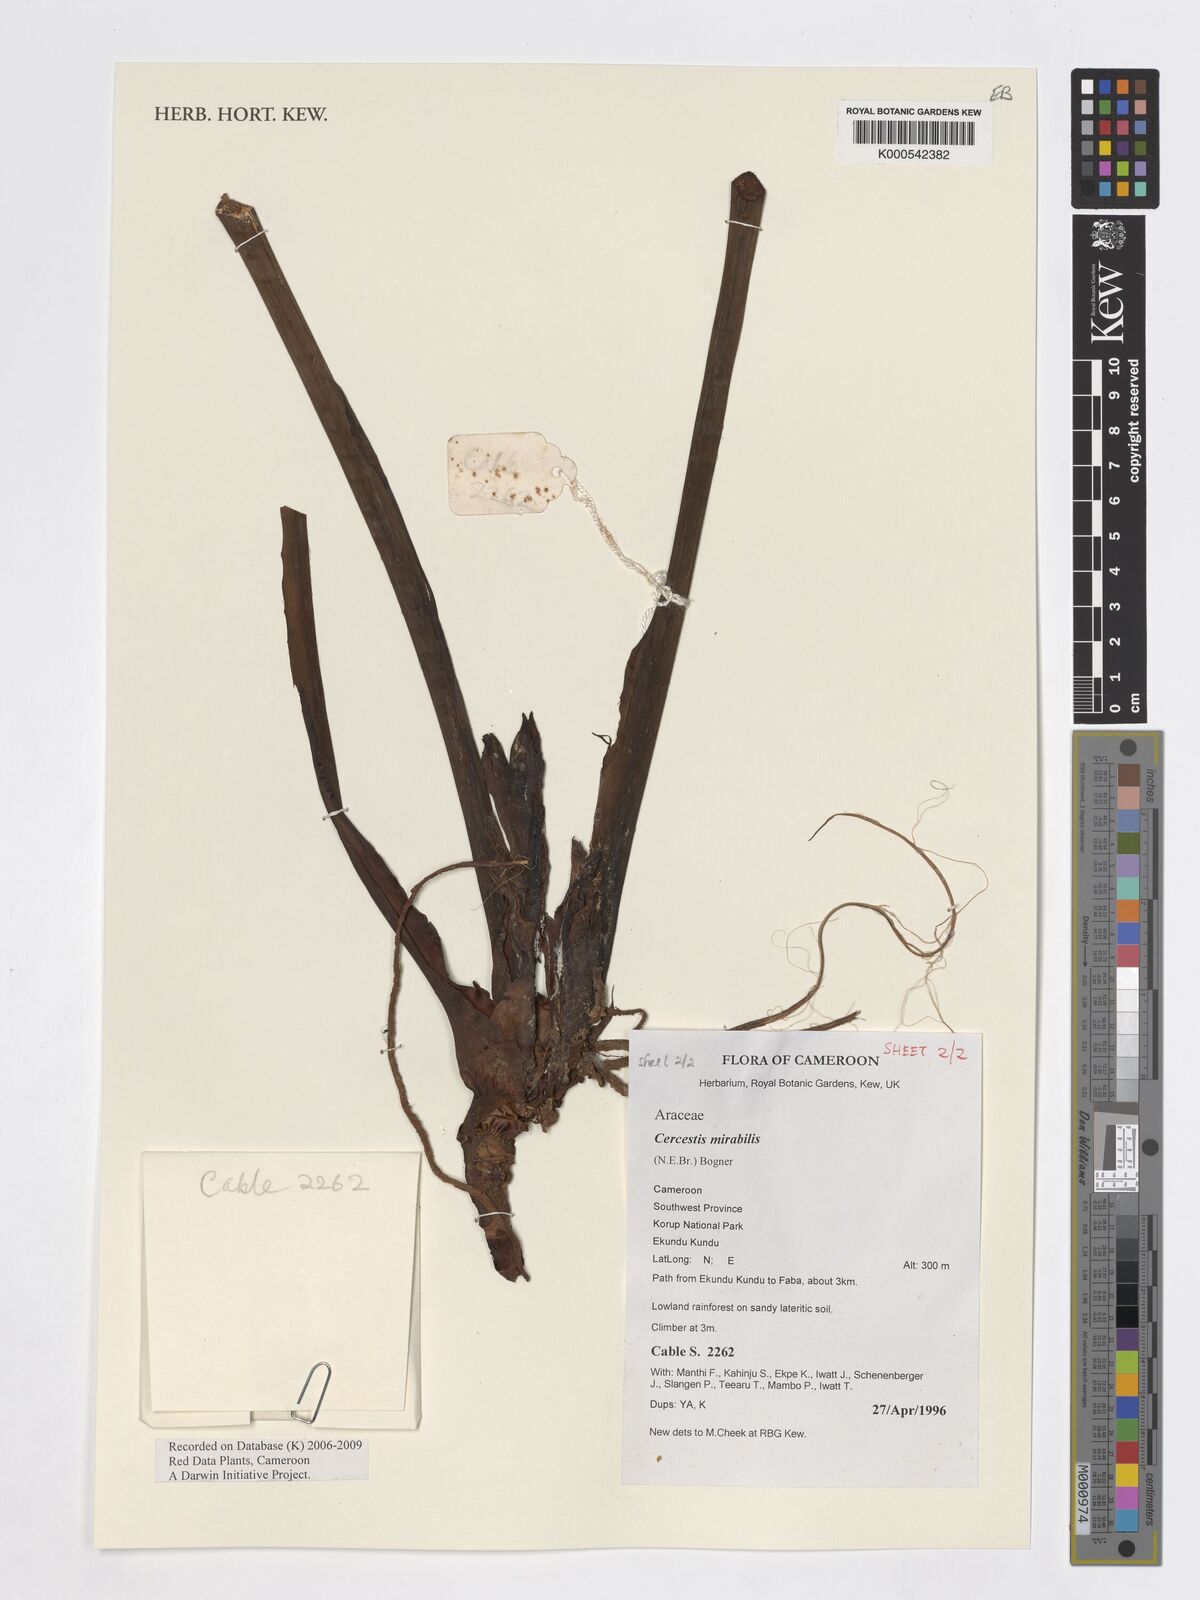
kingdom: Plantae
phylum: Tracheophyta
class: Liliopsida
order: Alismatales
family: Araceae
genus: Cercestis
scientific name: Cercestis mirabilis
